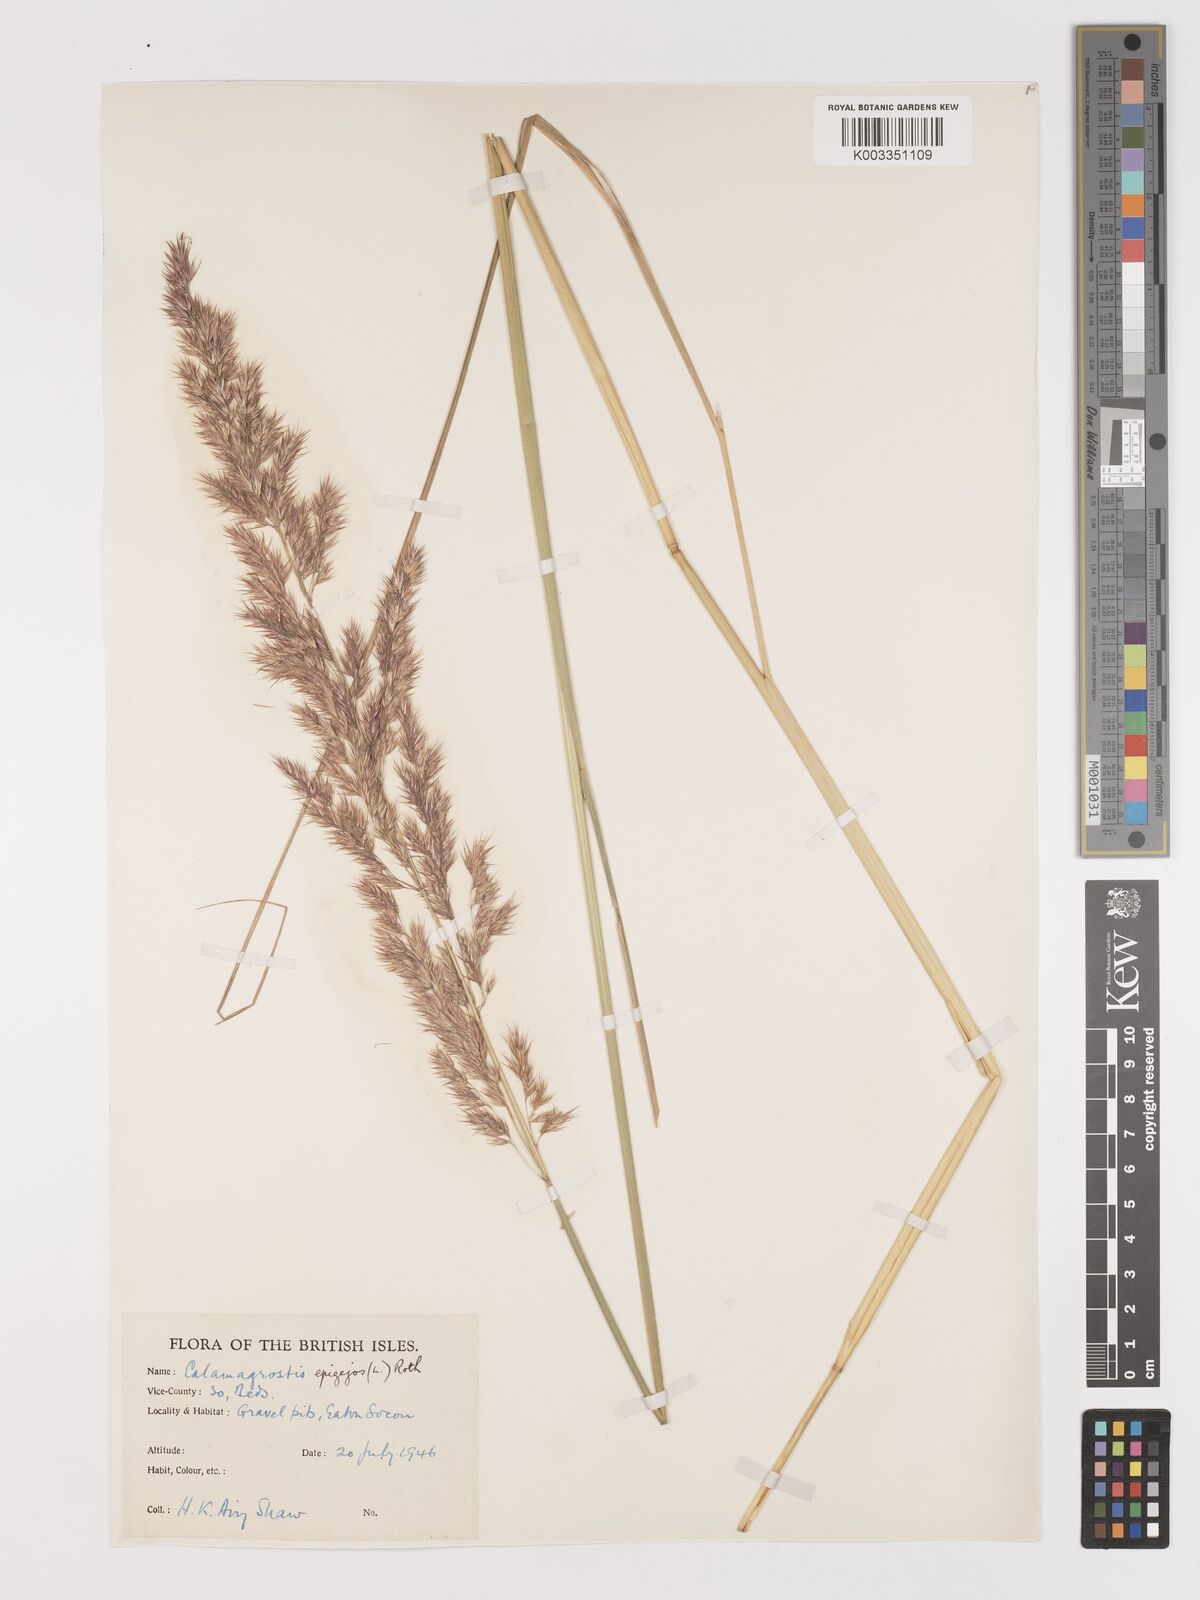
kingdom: Plantae
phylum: Tracheophyta
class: Liliopsida
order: Poales
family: Poaceae
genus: Calamagrostis
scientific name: Calamagrostis
